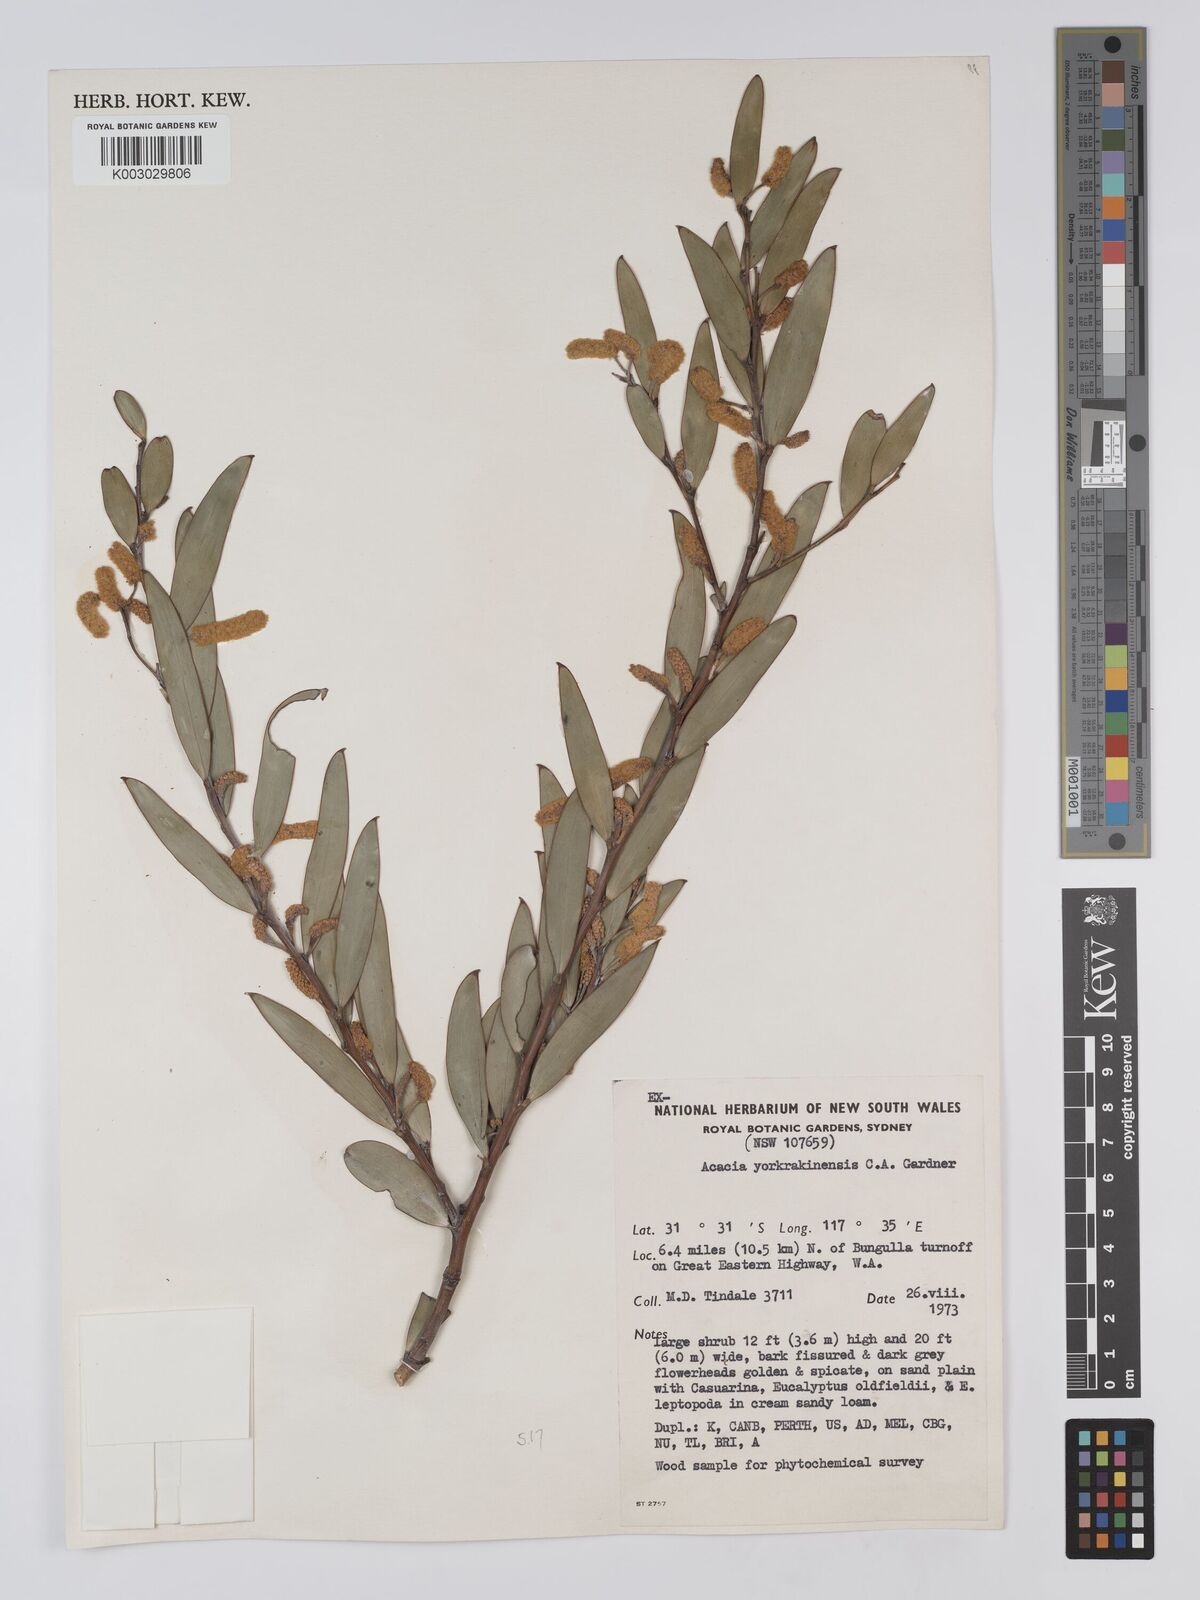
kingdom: Plantae
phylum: Tracheophyta
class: Magnoliopsida
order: Fabales
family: Fabaceae
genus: Acacia
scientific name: Acacia yorkrakinensis
